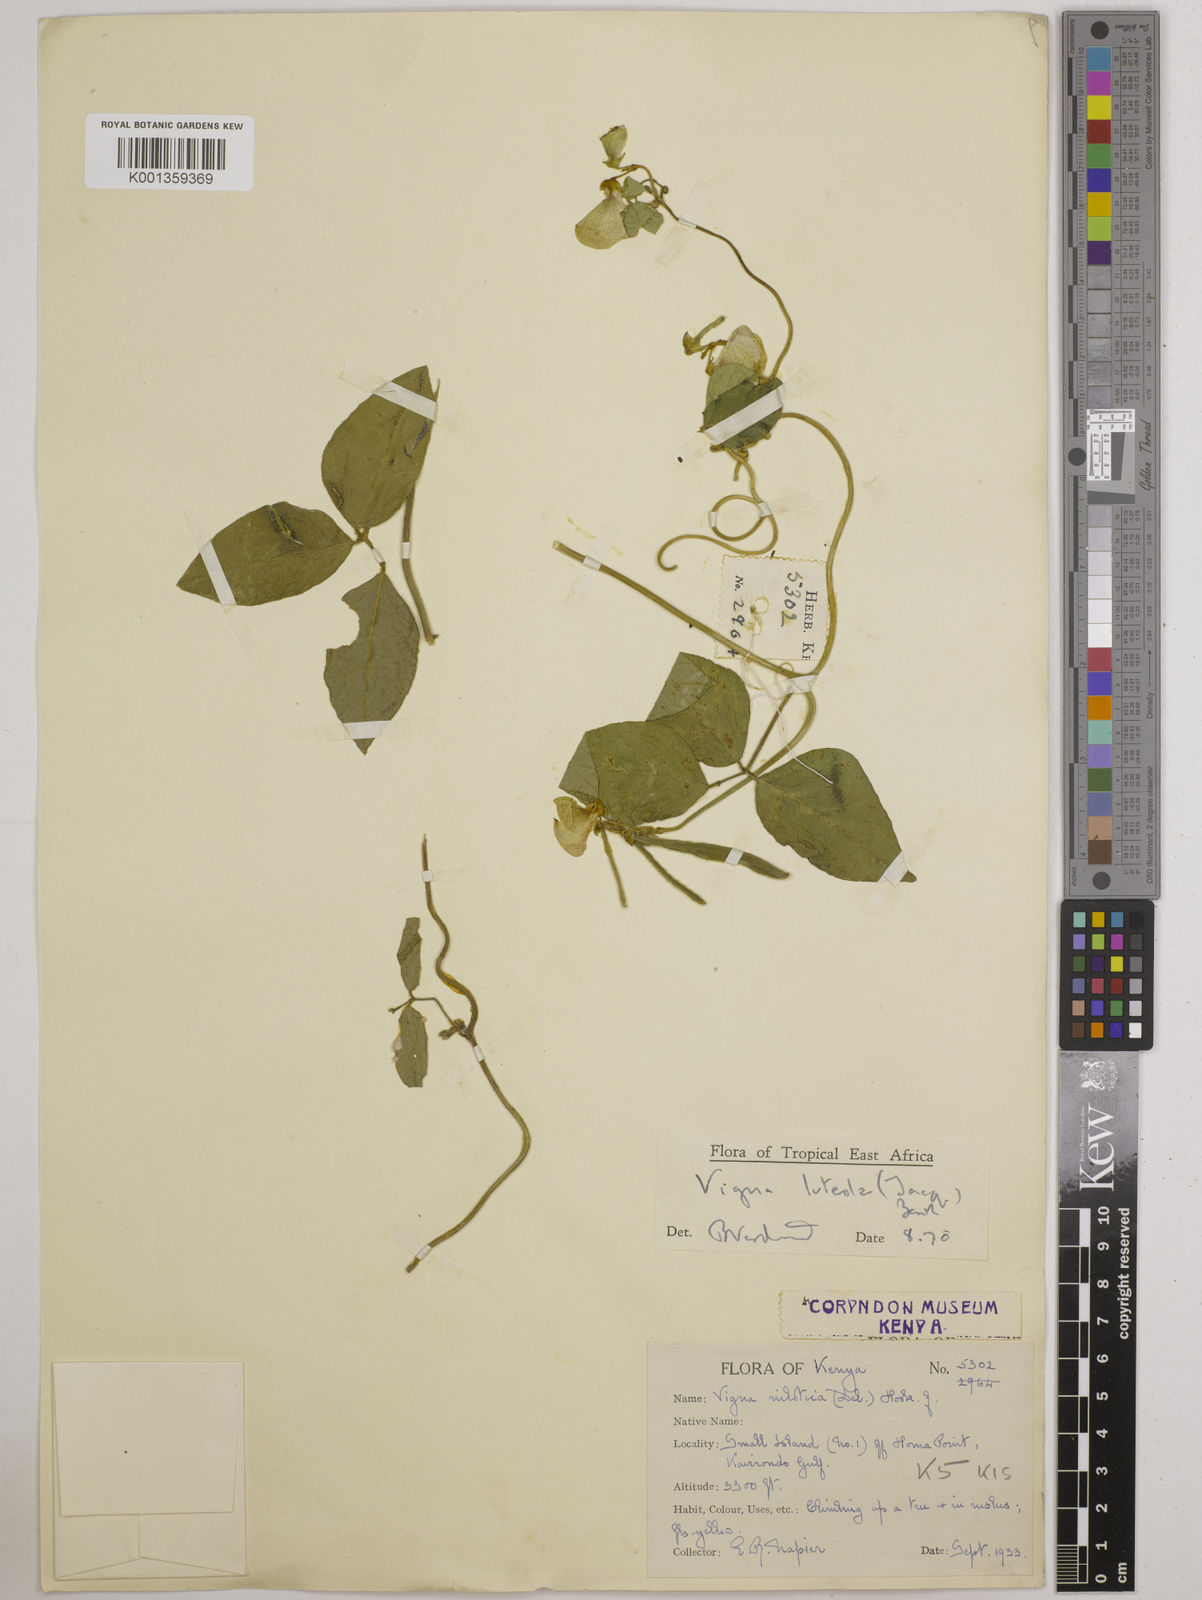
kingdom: Plantae
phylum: Tracheophyta
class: Magnoliopsida
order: Fabales
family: Fabaceae
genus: Vigna
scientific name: Vigna luteola
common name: Hairypod cowpea
